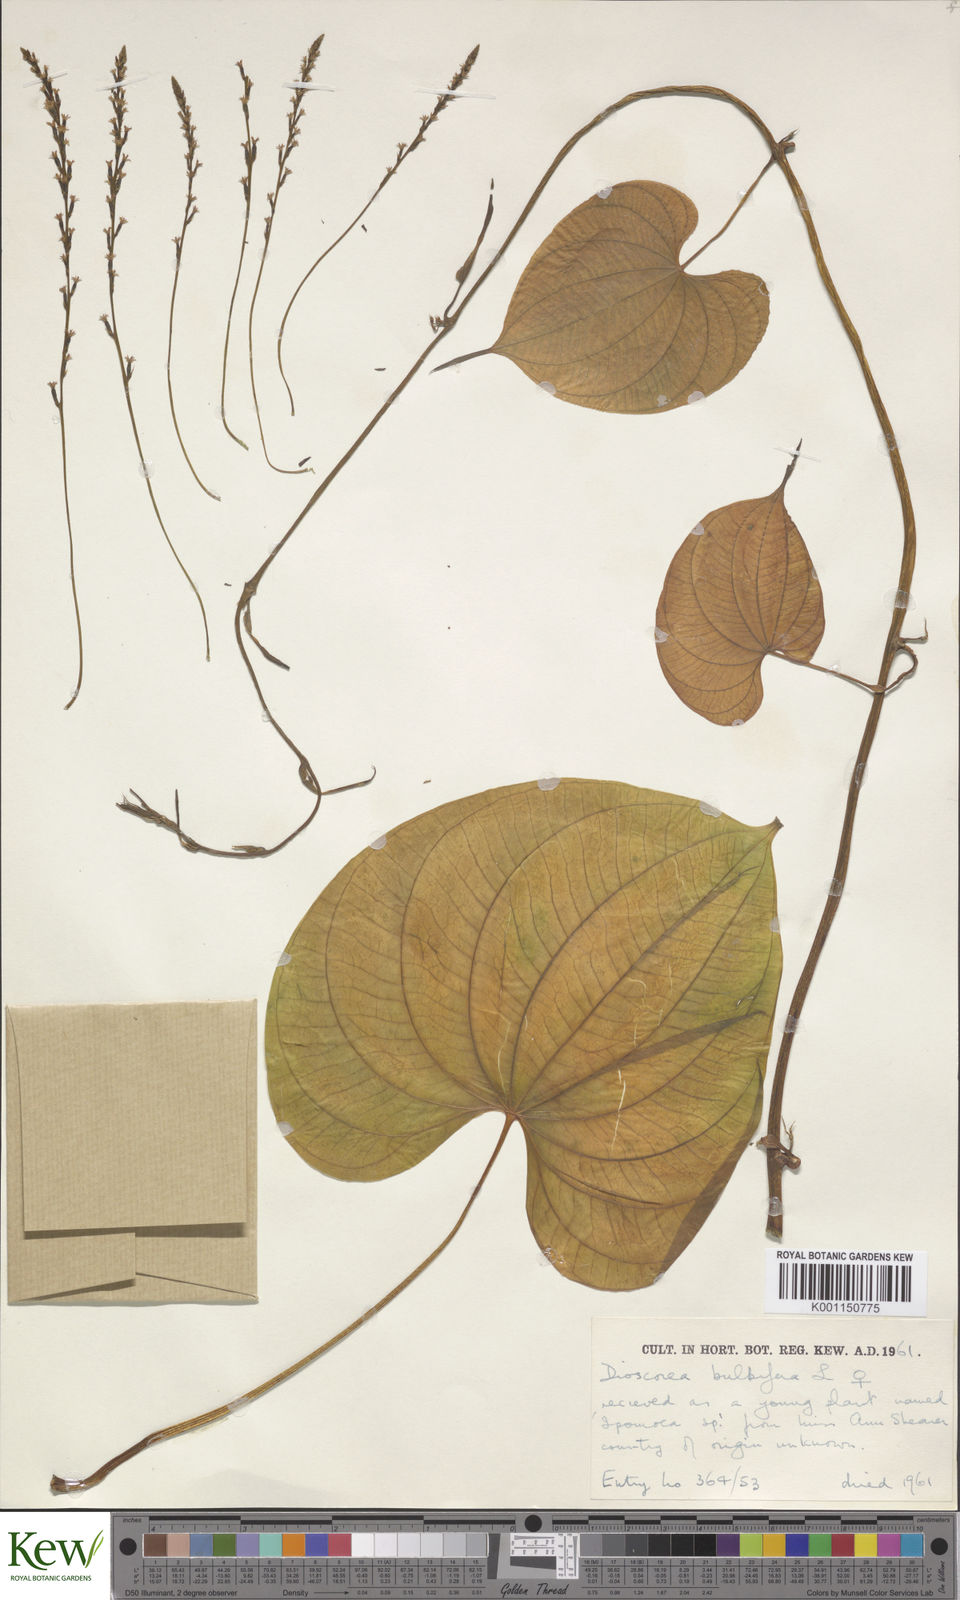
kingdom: Plantae
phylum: Tracheophyta
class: Liliopsida
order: Dioscoreales
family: Dioscoreaceae
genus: Dioscorea
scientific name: Dioscorea bulbifera
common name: Air yam
